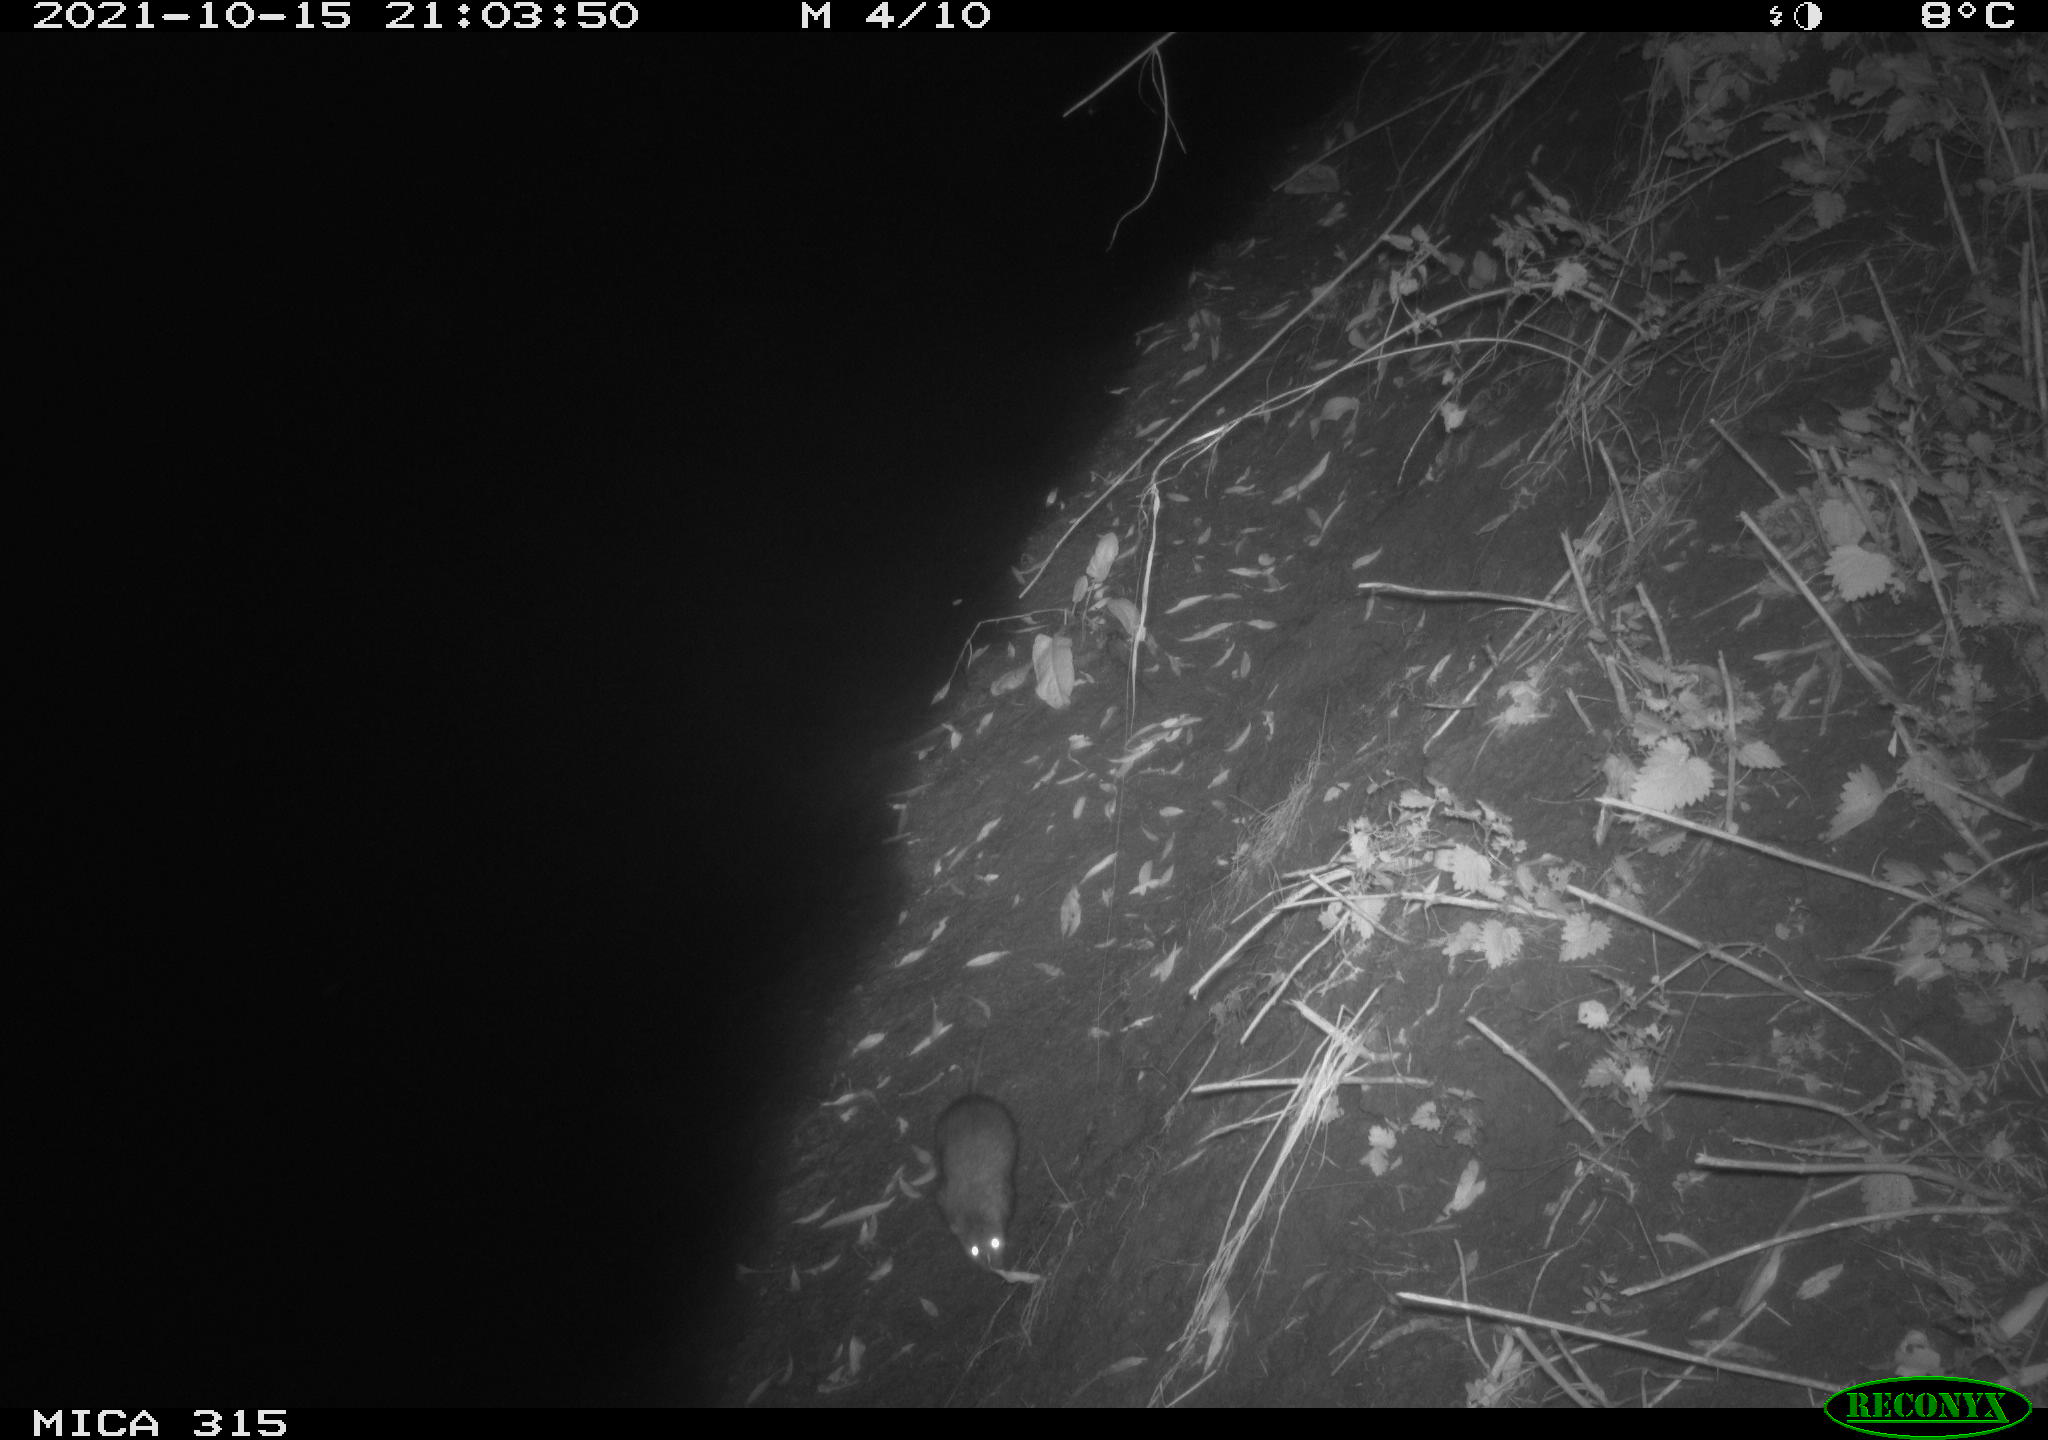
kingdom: Animalia
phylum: Chordata
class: Mammalia
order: Rodentia
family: Muridae
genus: Rattus
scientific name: Rattus norvegicus
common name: Brown rat
